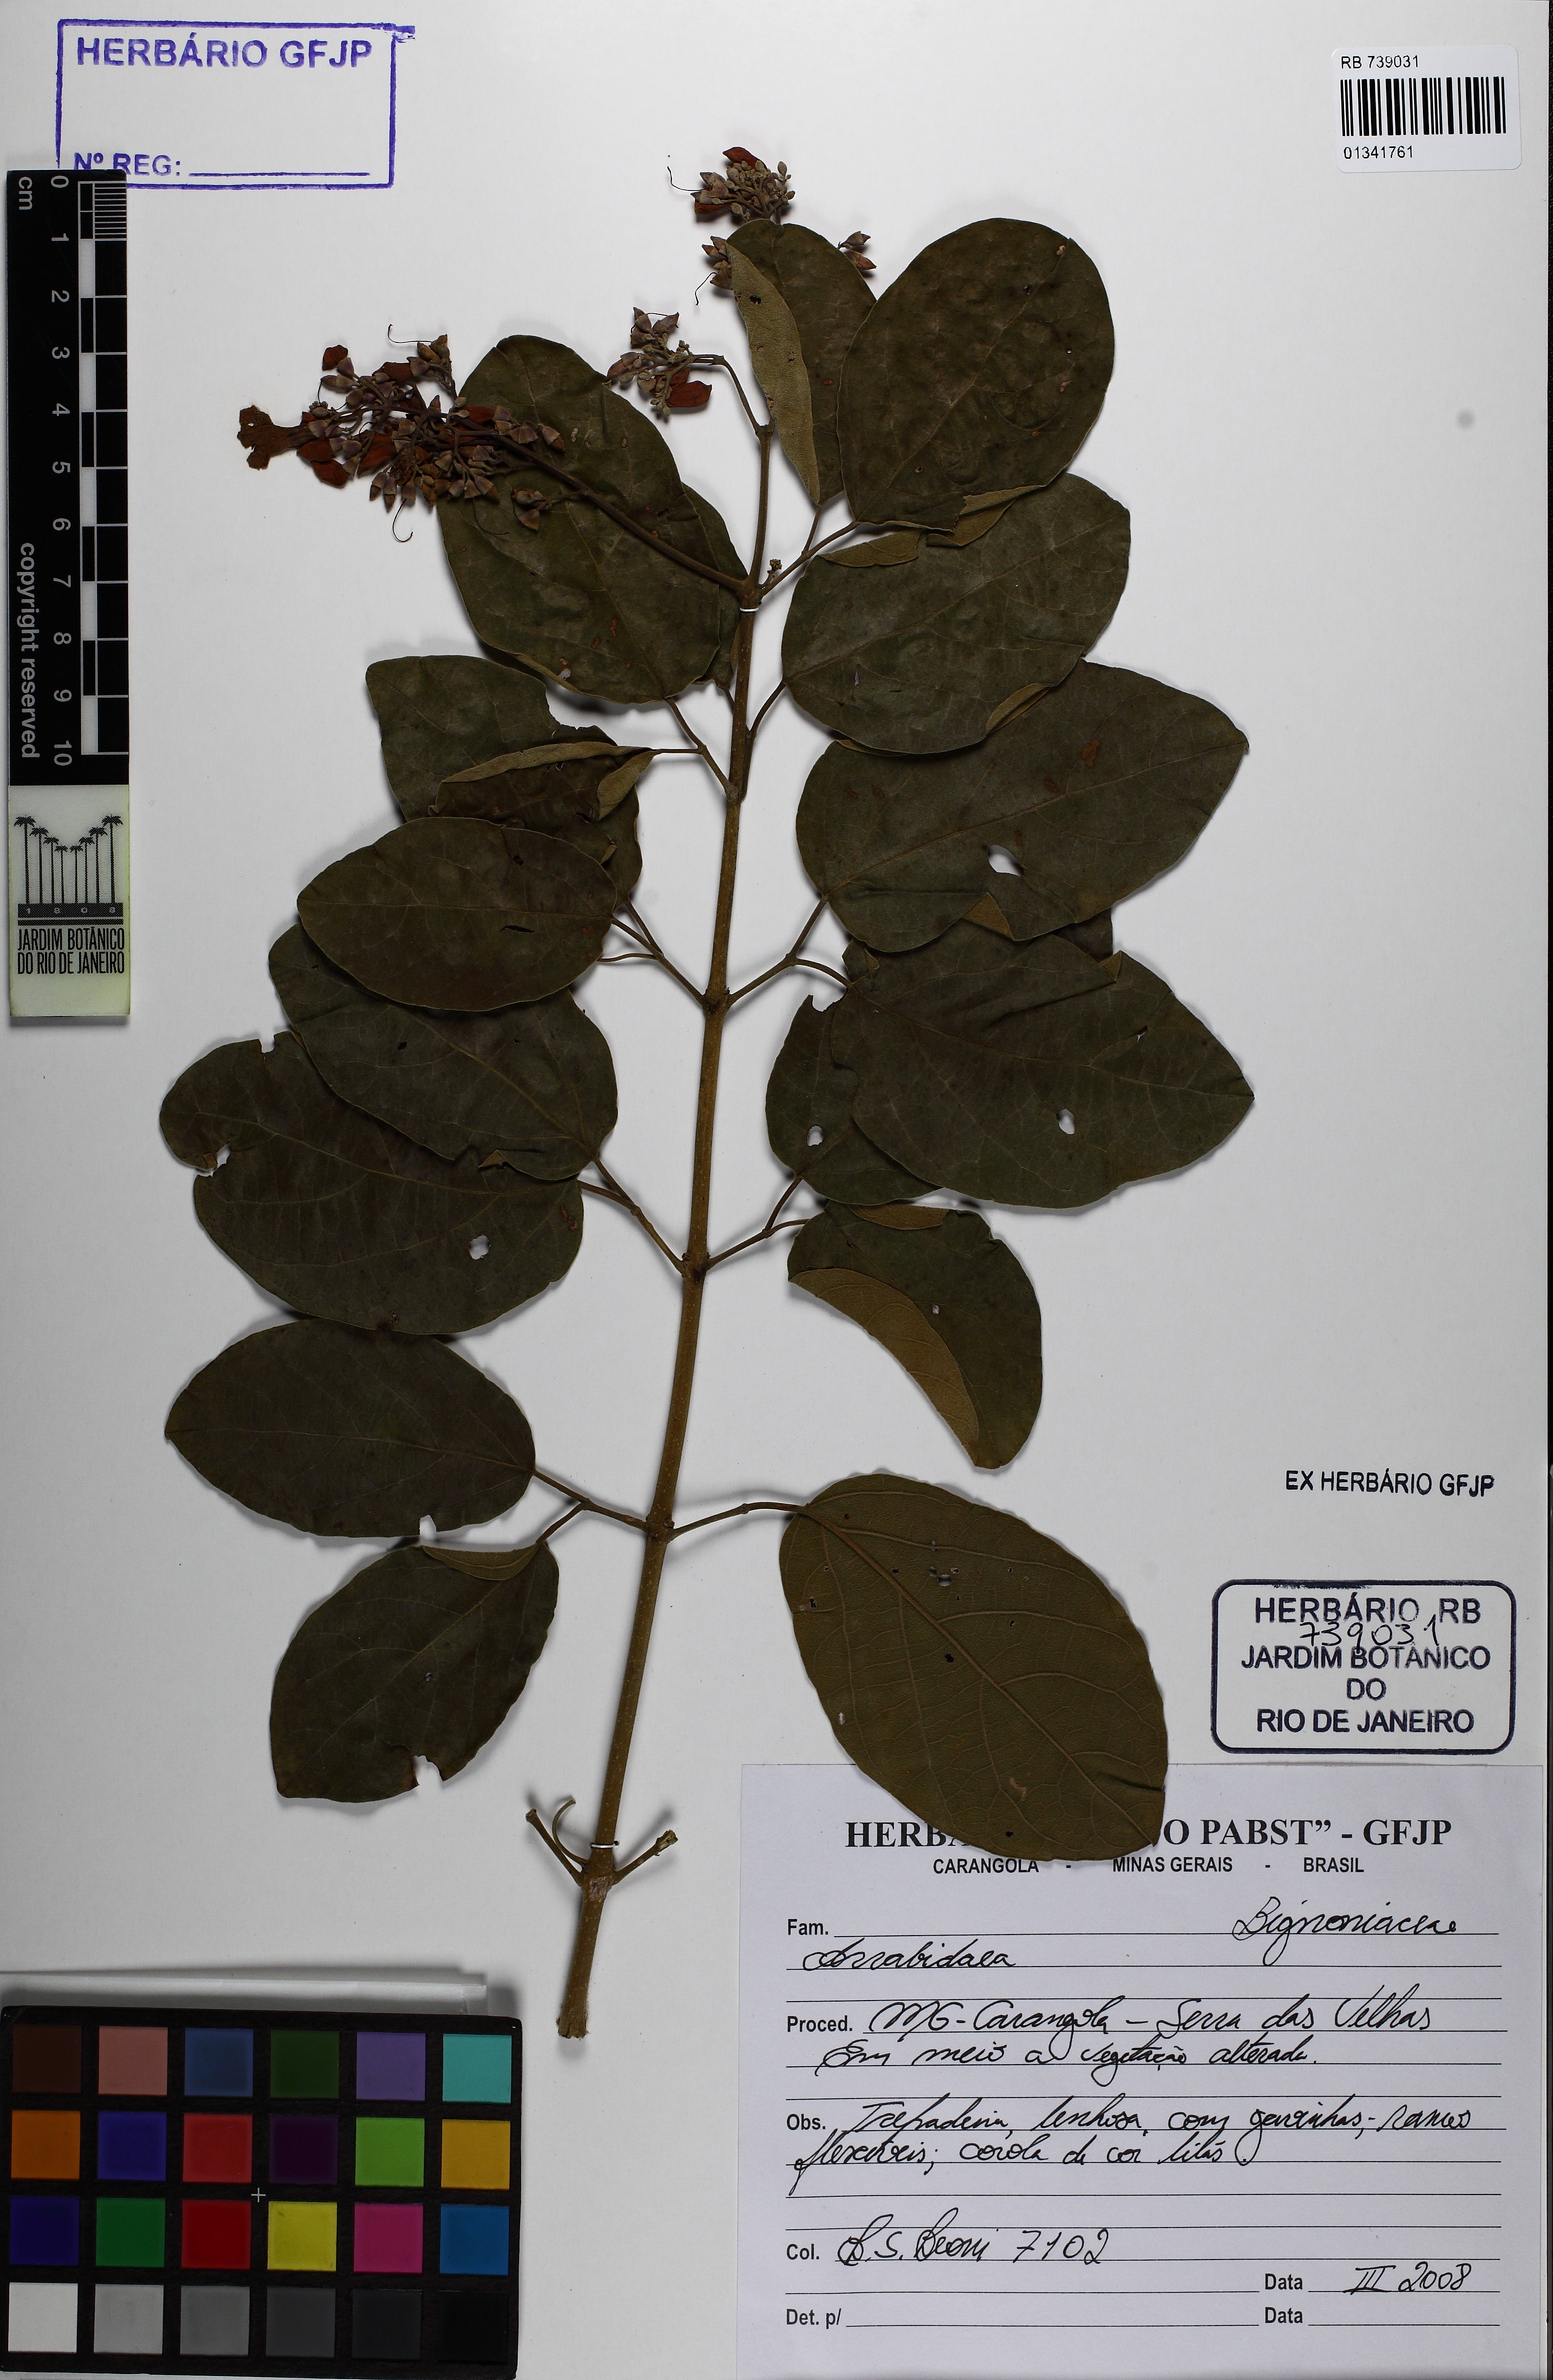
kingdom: Plantae
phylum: Tracheophyta
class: Magnoliopsida
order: Lamiales
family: Bignoniaceae
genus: Fridericia
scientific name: Fridericia pubescens
